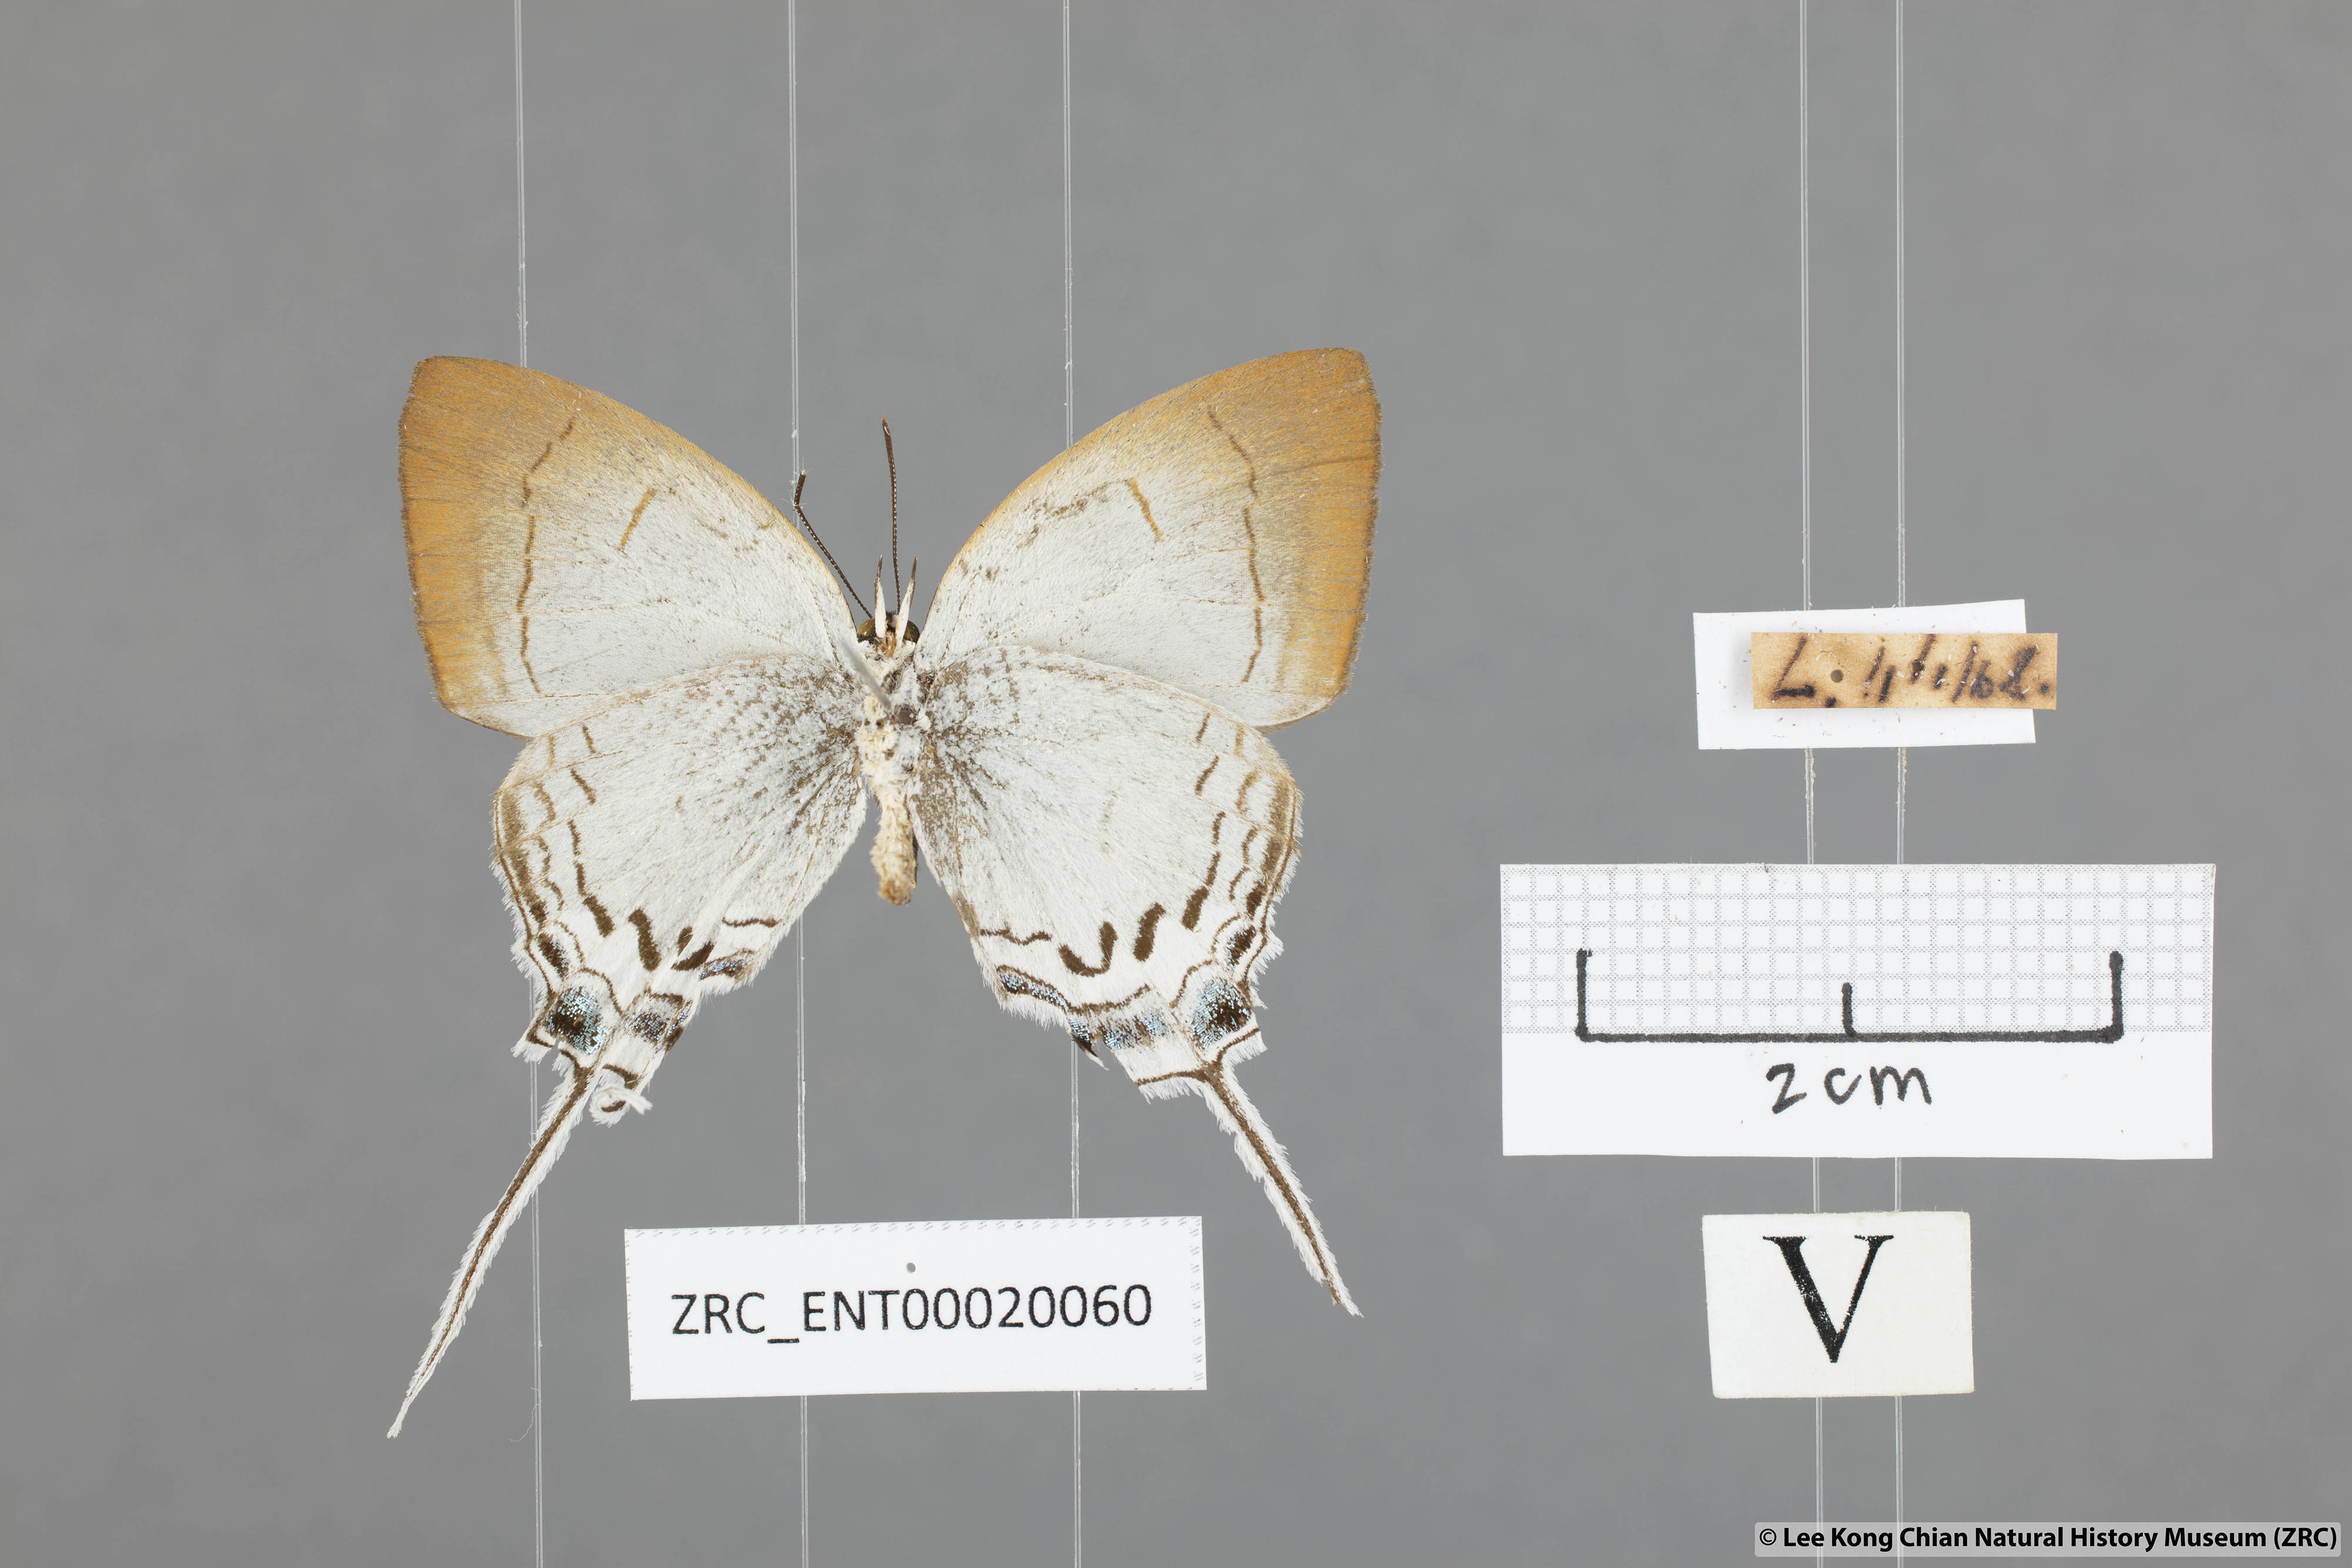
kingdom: Animalia
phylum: Arthropoda
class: Insecta
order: Lepidoptera
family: Lycaenidae
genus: Cheritra
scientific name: Cheritra freja
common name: Common imperial
